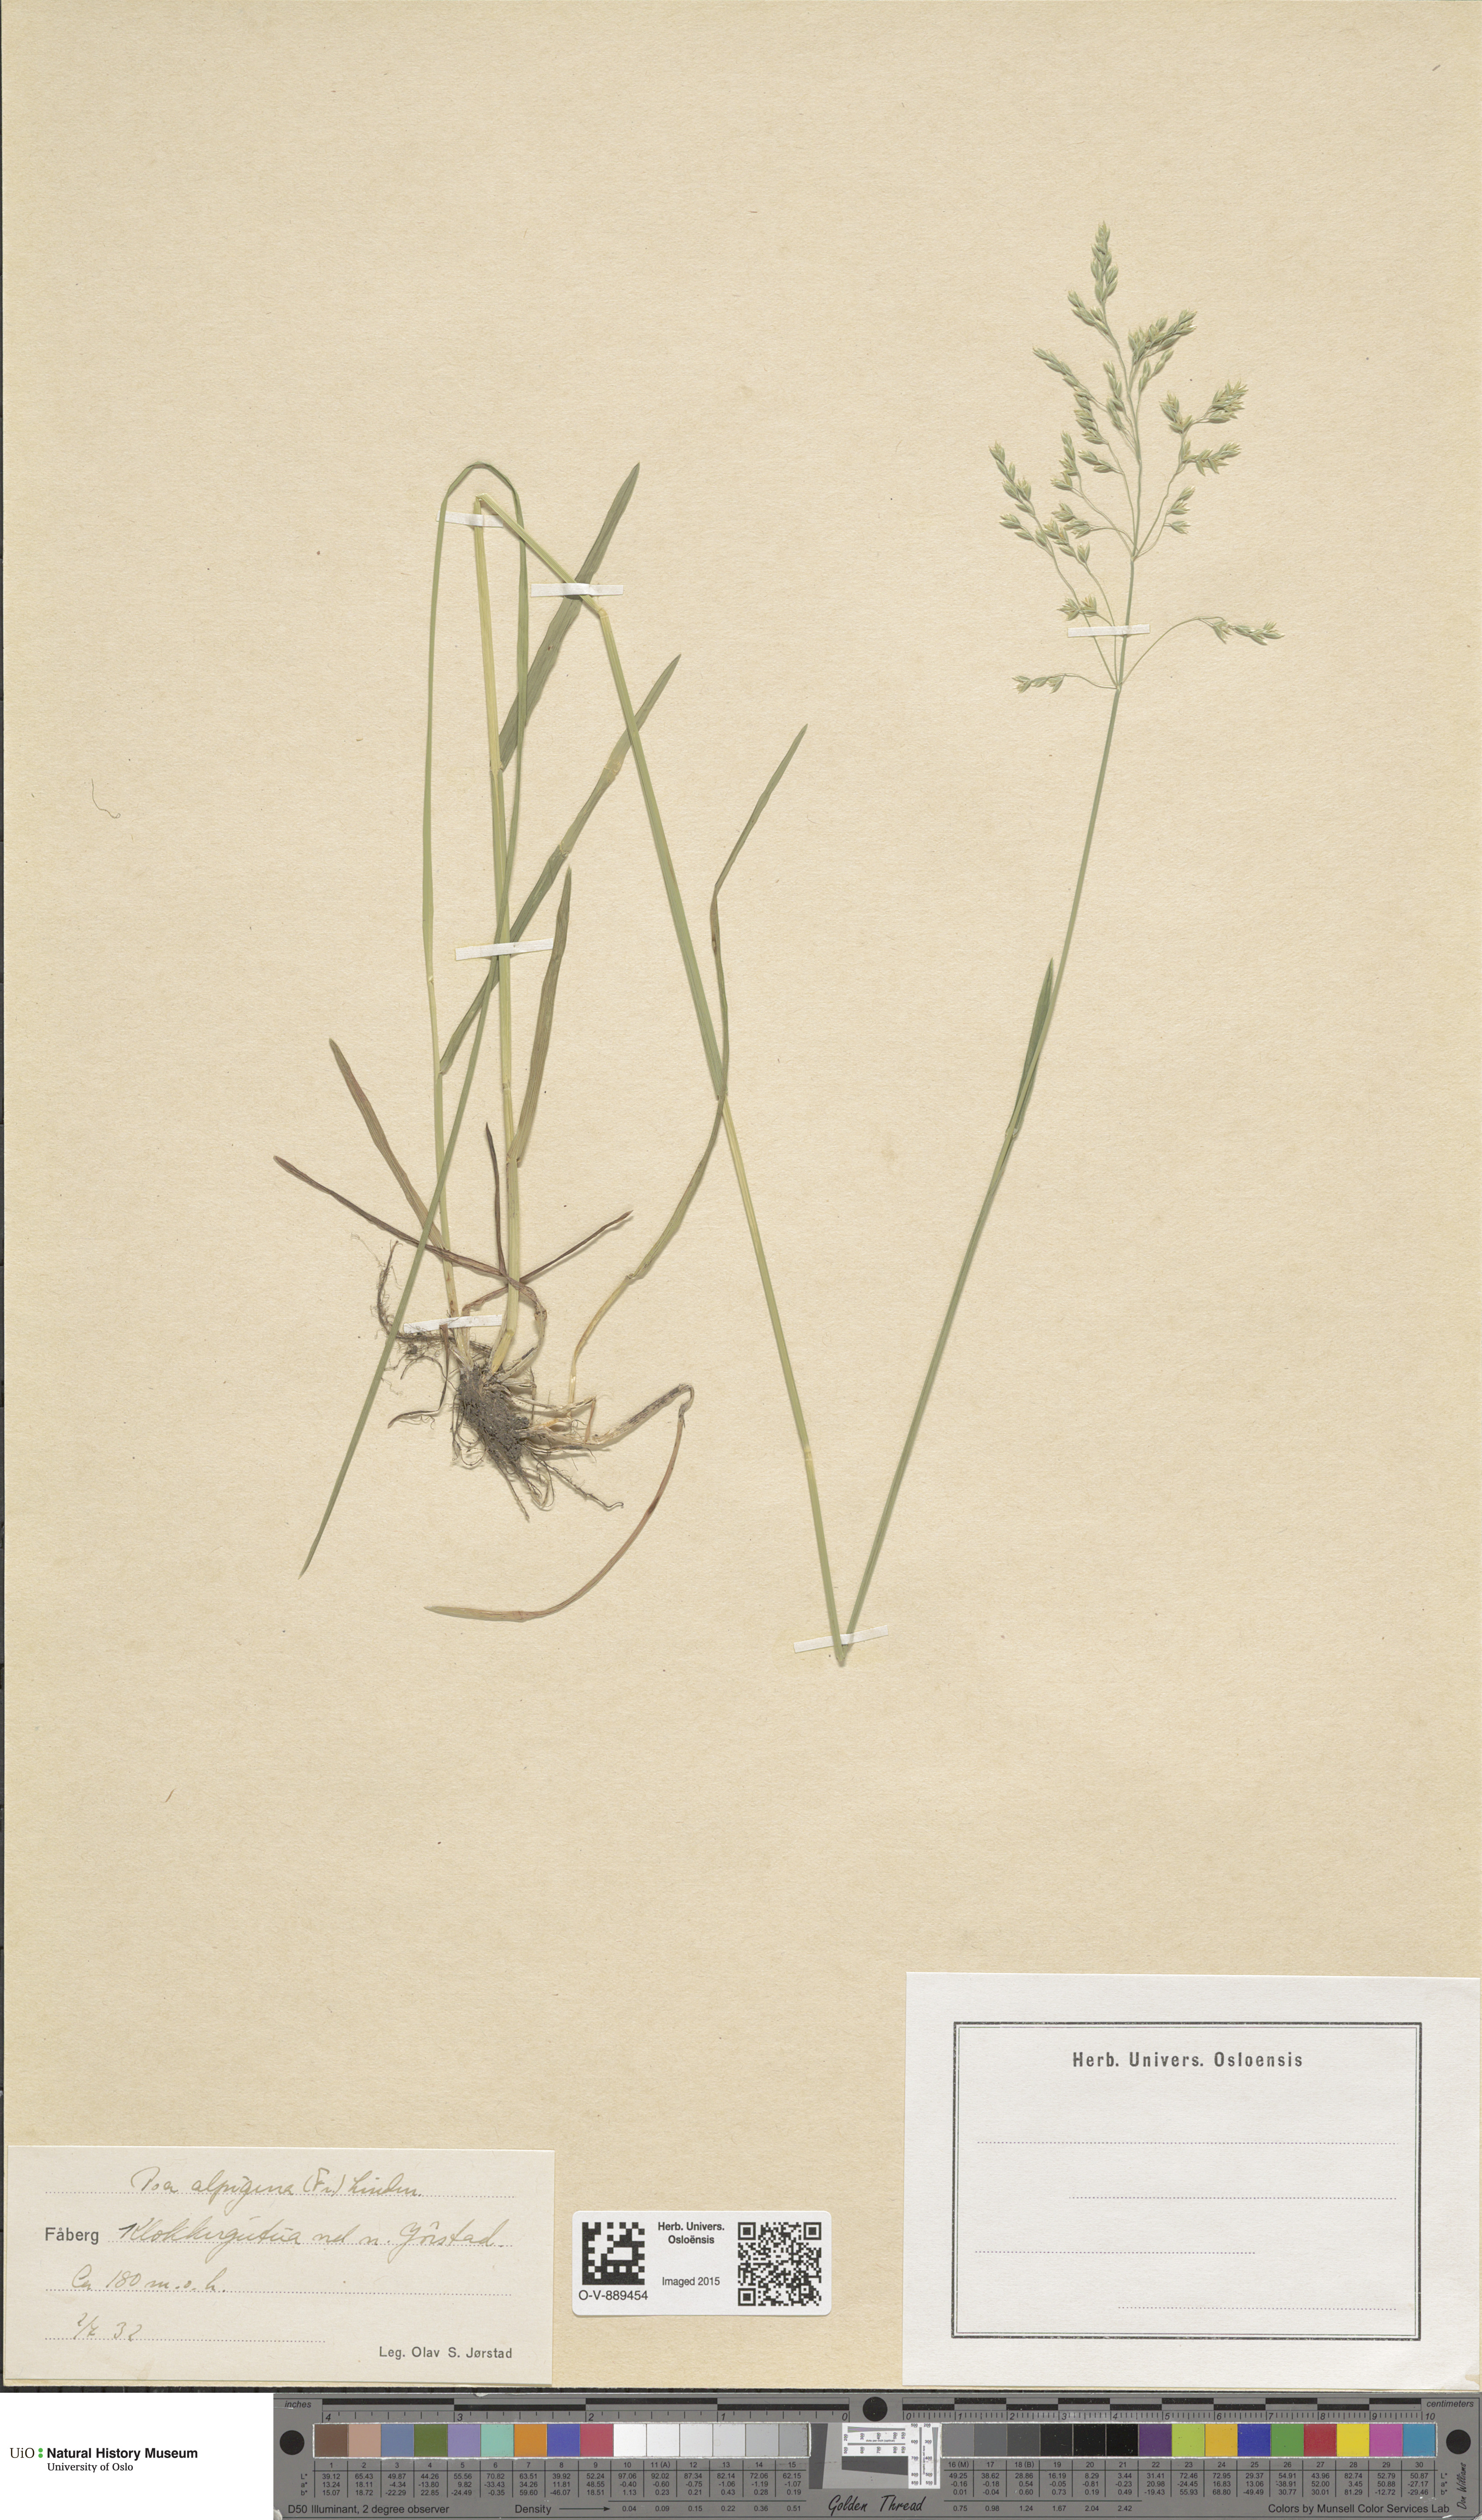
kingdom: Plantae
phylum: Tracheophyta
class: Liliopsida
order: Poales
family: Poaceae
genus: Poa
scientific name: Poa alpigena
